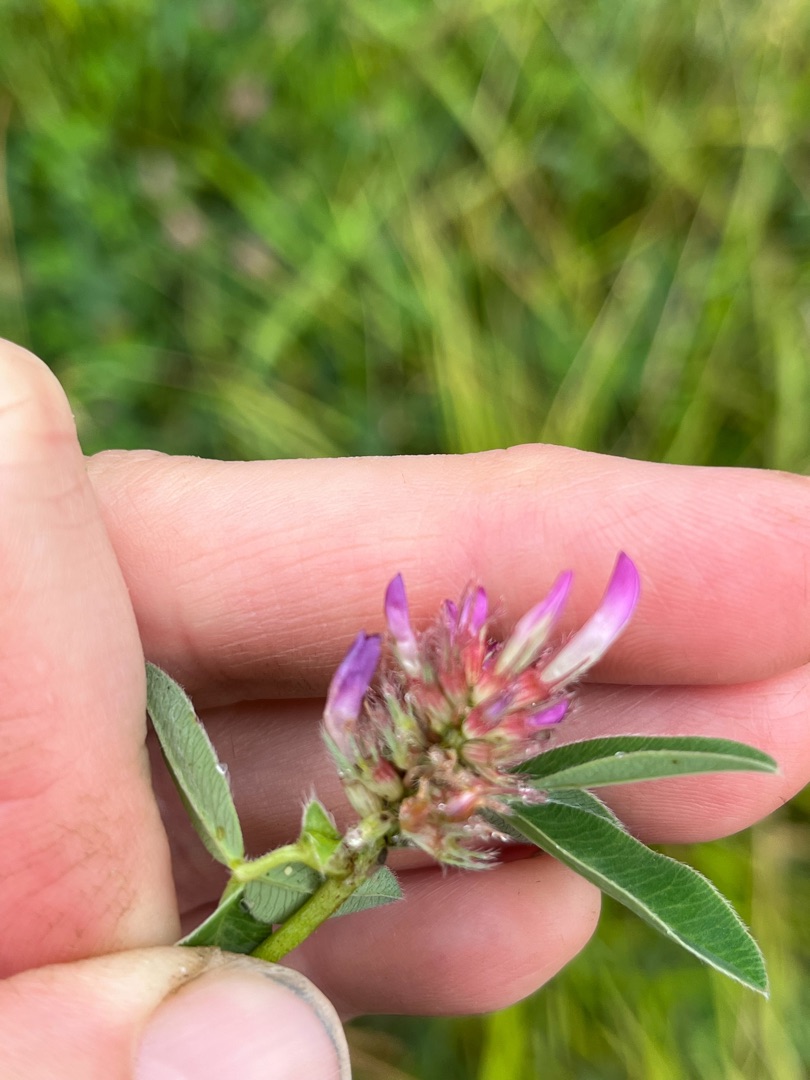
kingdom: Plantae
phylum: Tracheophyta
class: Magnoliopsida
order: Fabales
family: Fabaceae
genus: Trifolium
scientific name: Trifolium medium
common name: Bugtet kløver
